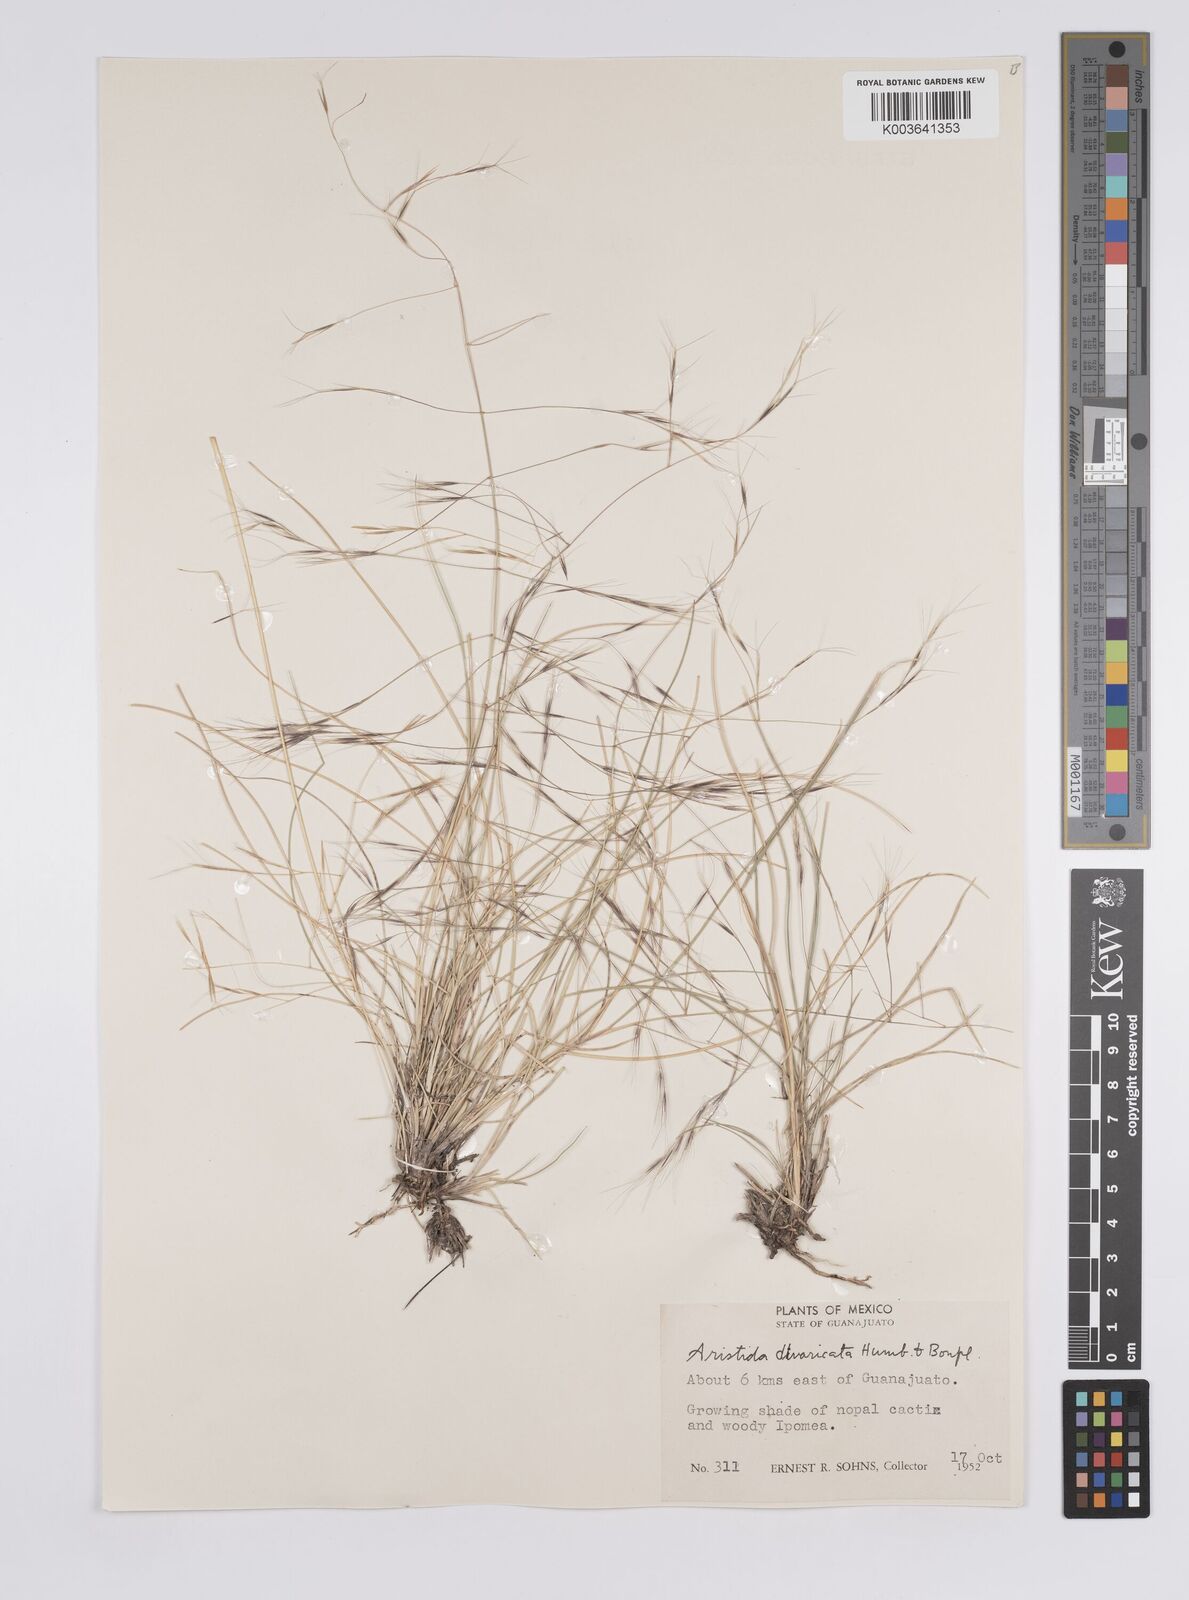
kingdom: Plantae
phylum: Tracheophyta
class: Liliopsida
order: Poales
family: Poaceae
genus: Aristida
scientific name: Aristida divaricata
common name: Poverty grass
